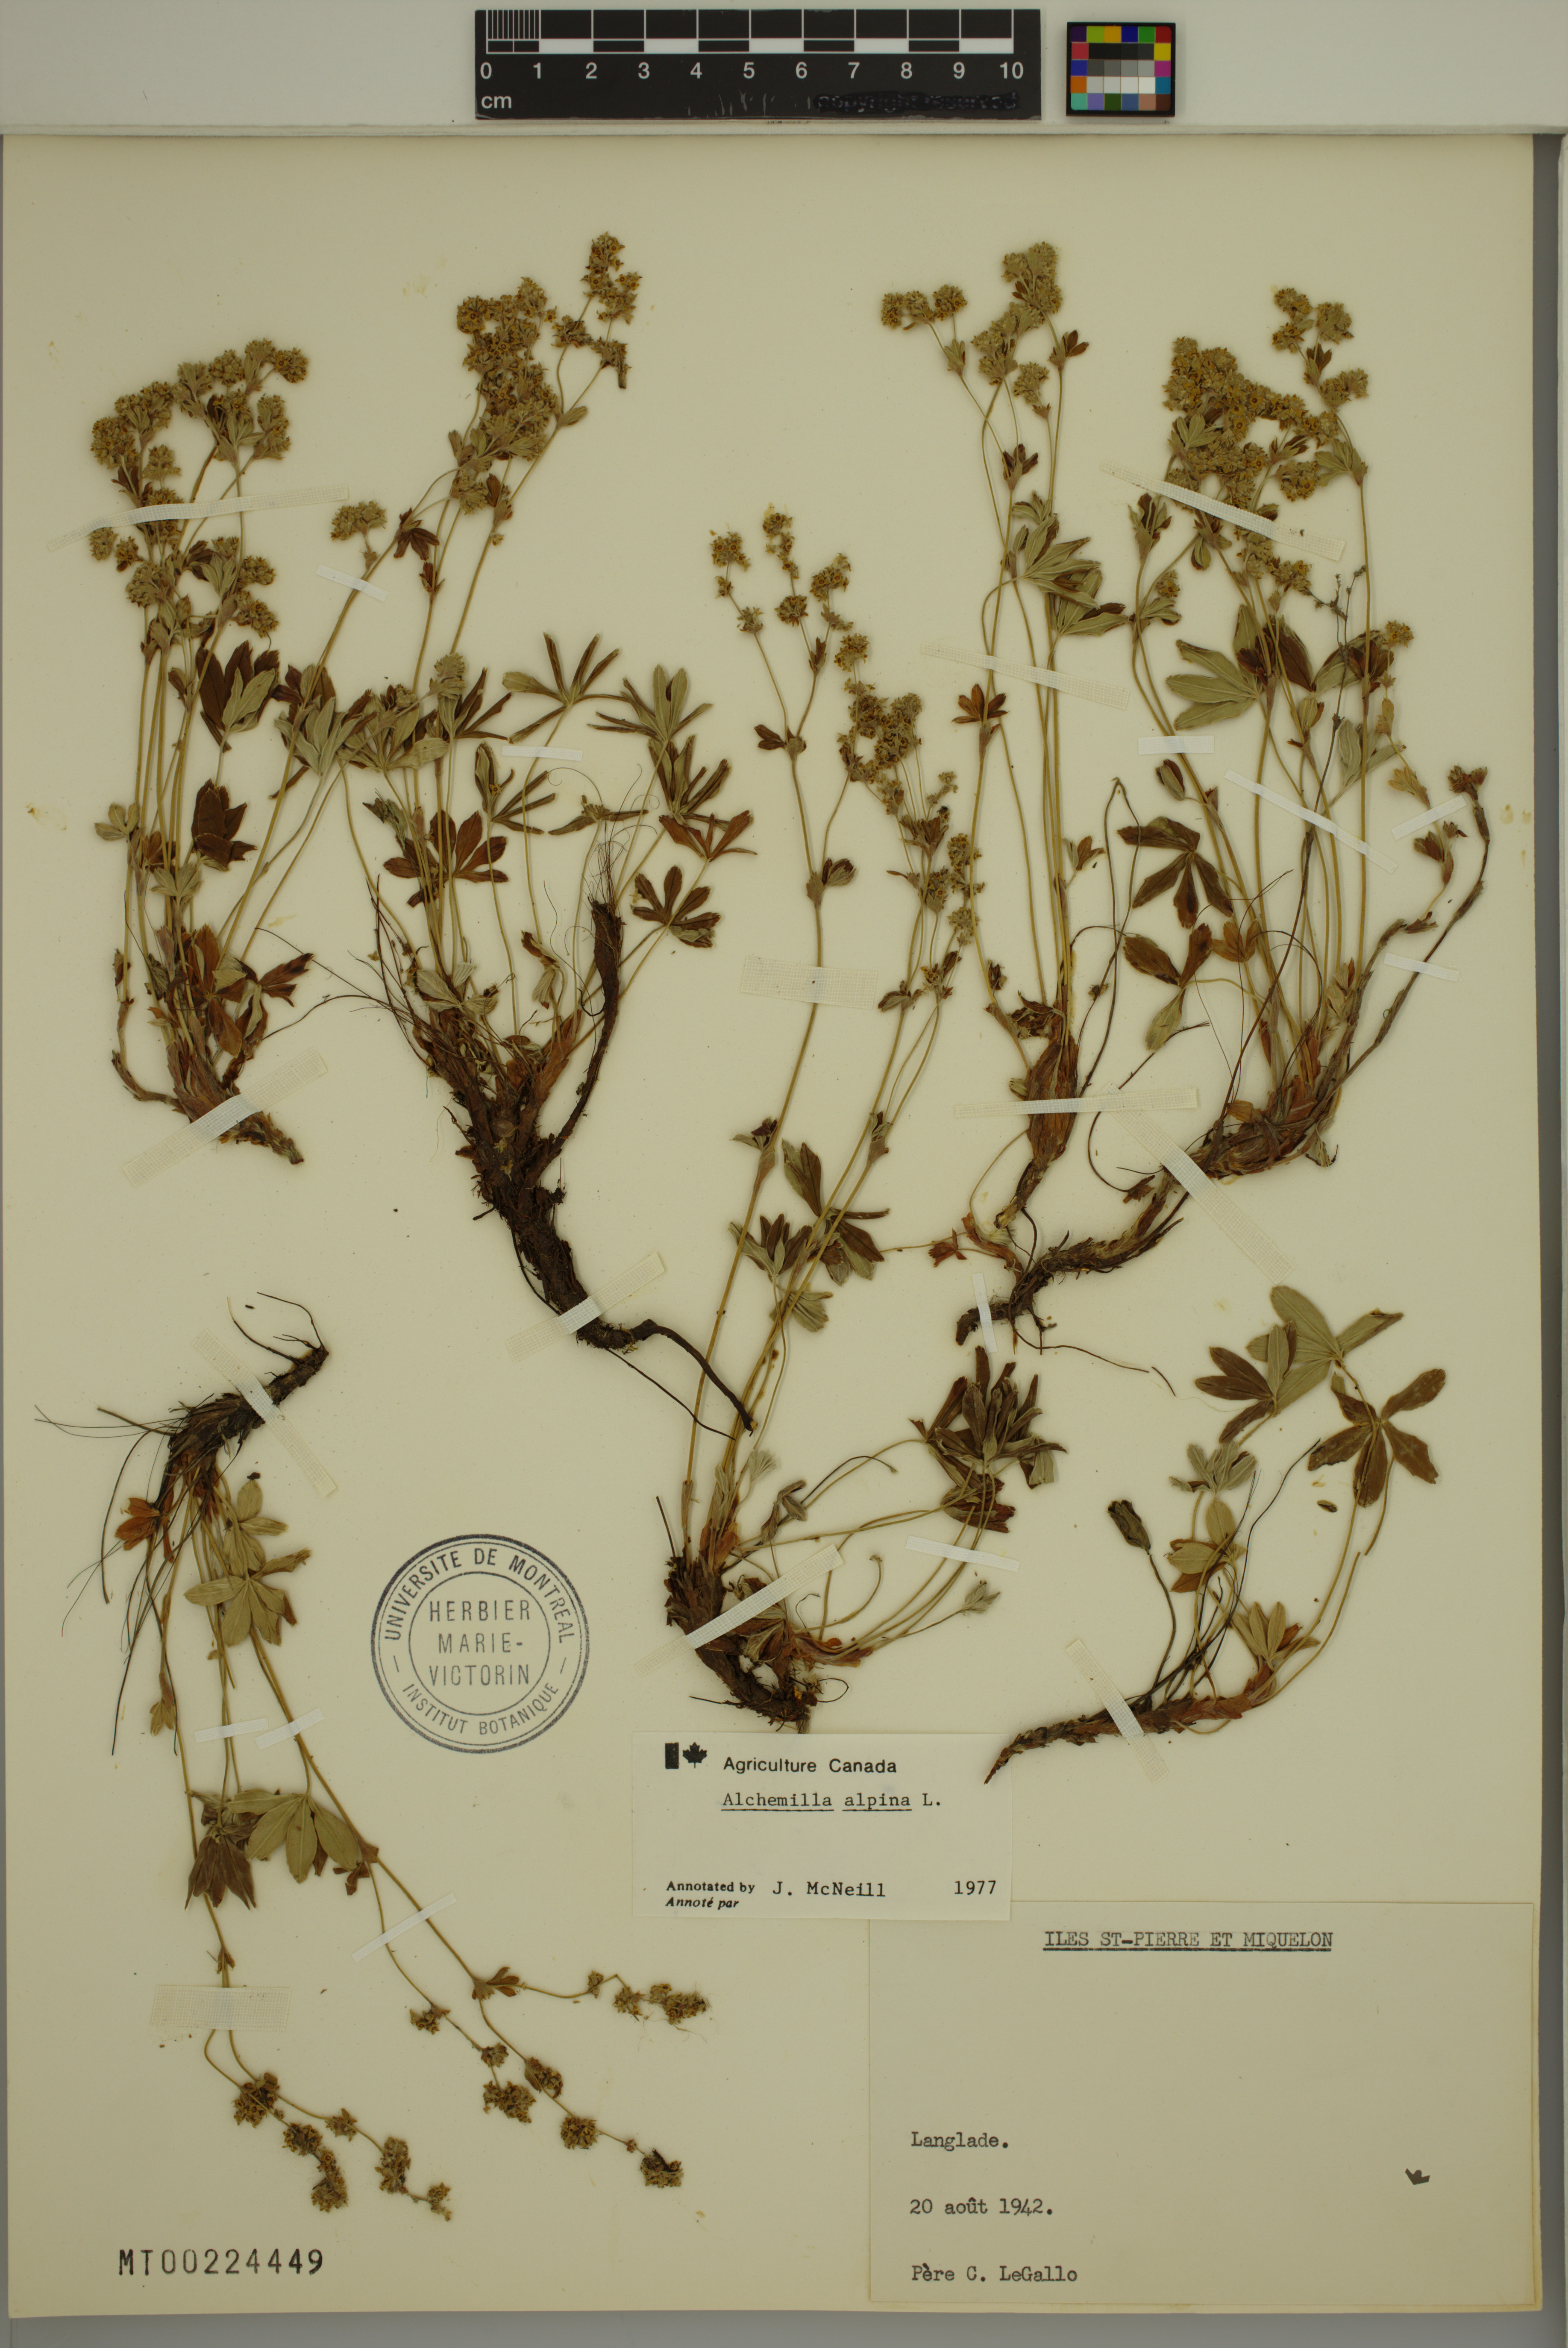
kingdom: Plantae
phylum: Tracheophyta
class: Magnoliopsida
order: Rosales
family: Rosaceae
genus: Alchemilla
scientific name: Alchemilla alpina
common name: Alpine lady's-mantle
